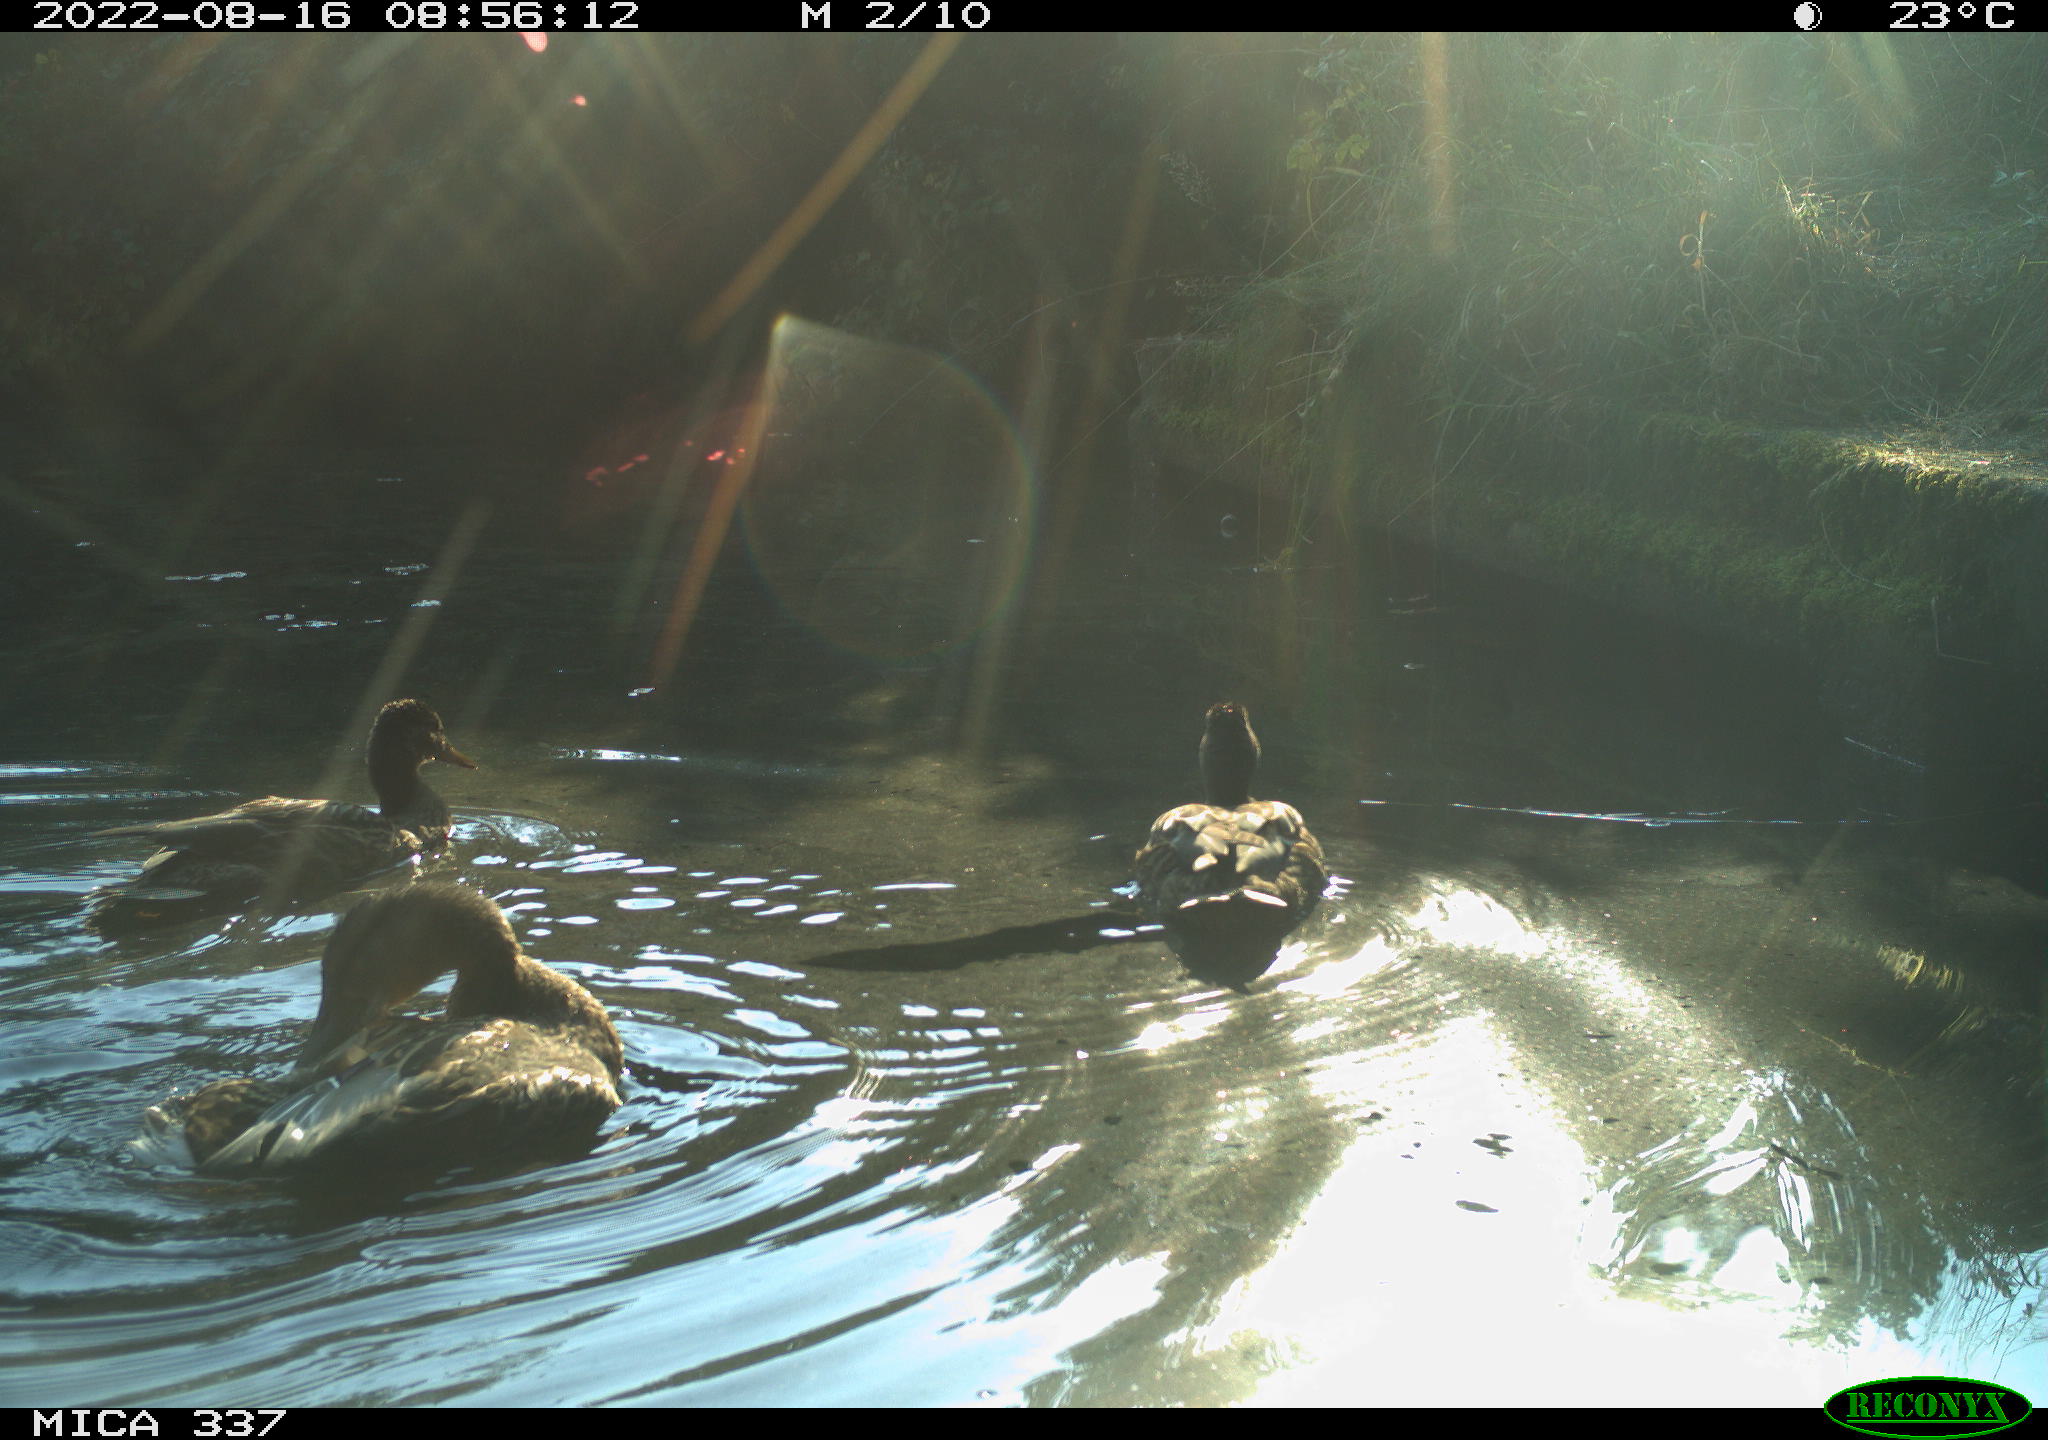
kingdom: Animalia
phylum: Chordata
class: Aves
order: Anseriformes
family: Anatidae
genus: Anas
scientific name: Anas platyrhynchos
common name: Mallard
